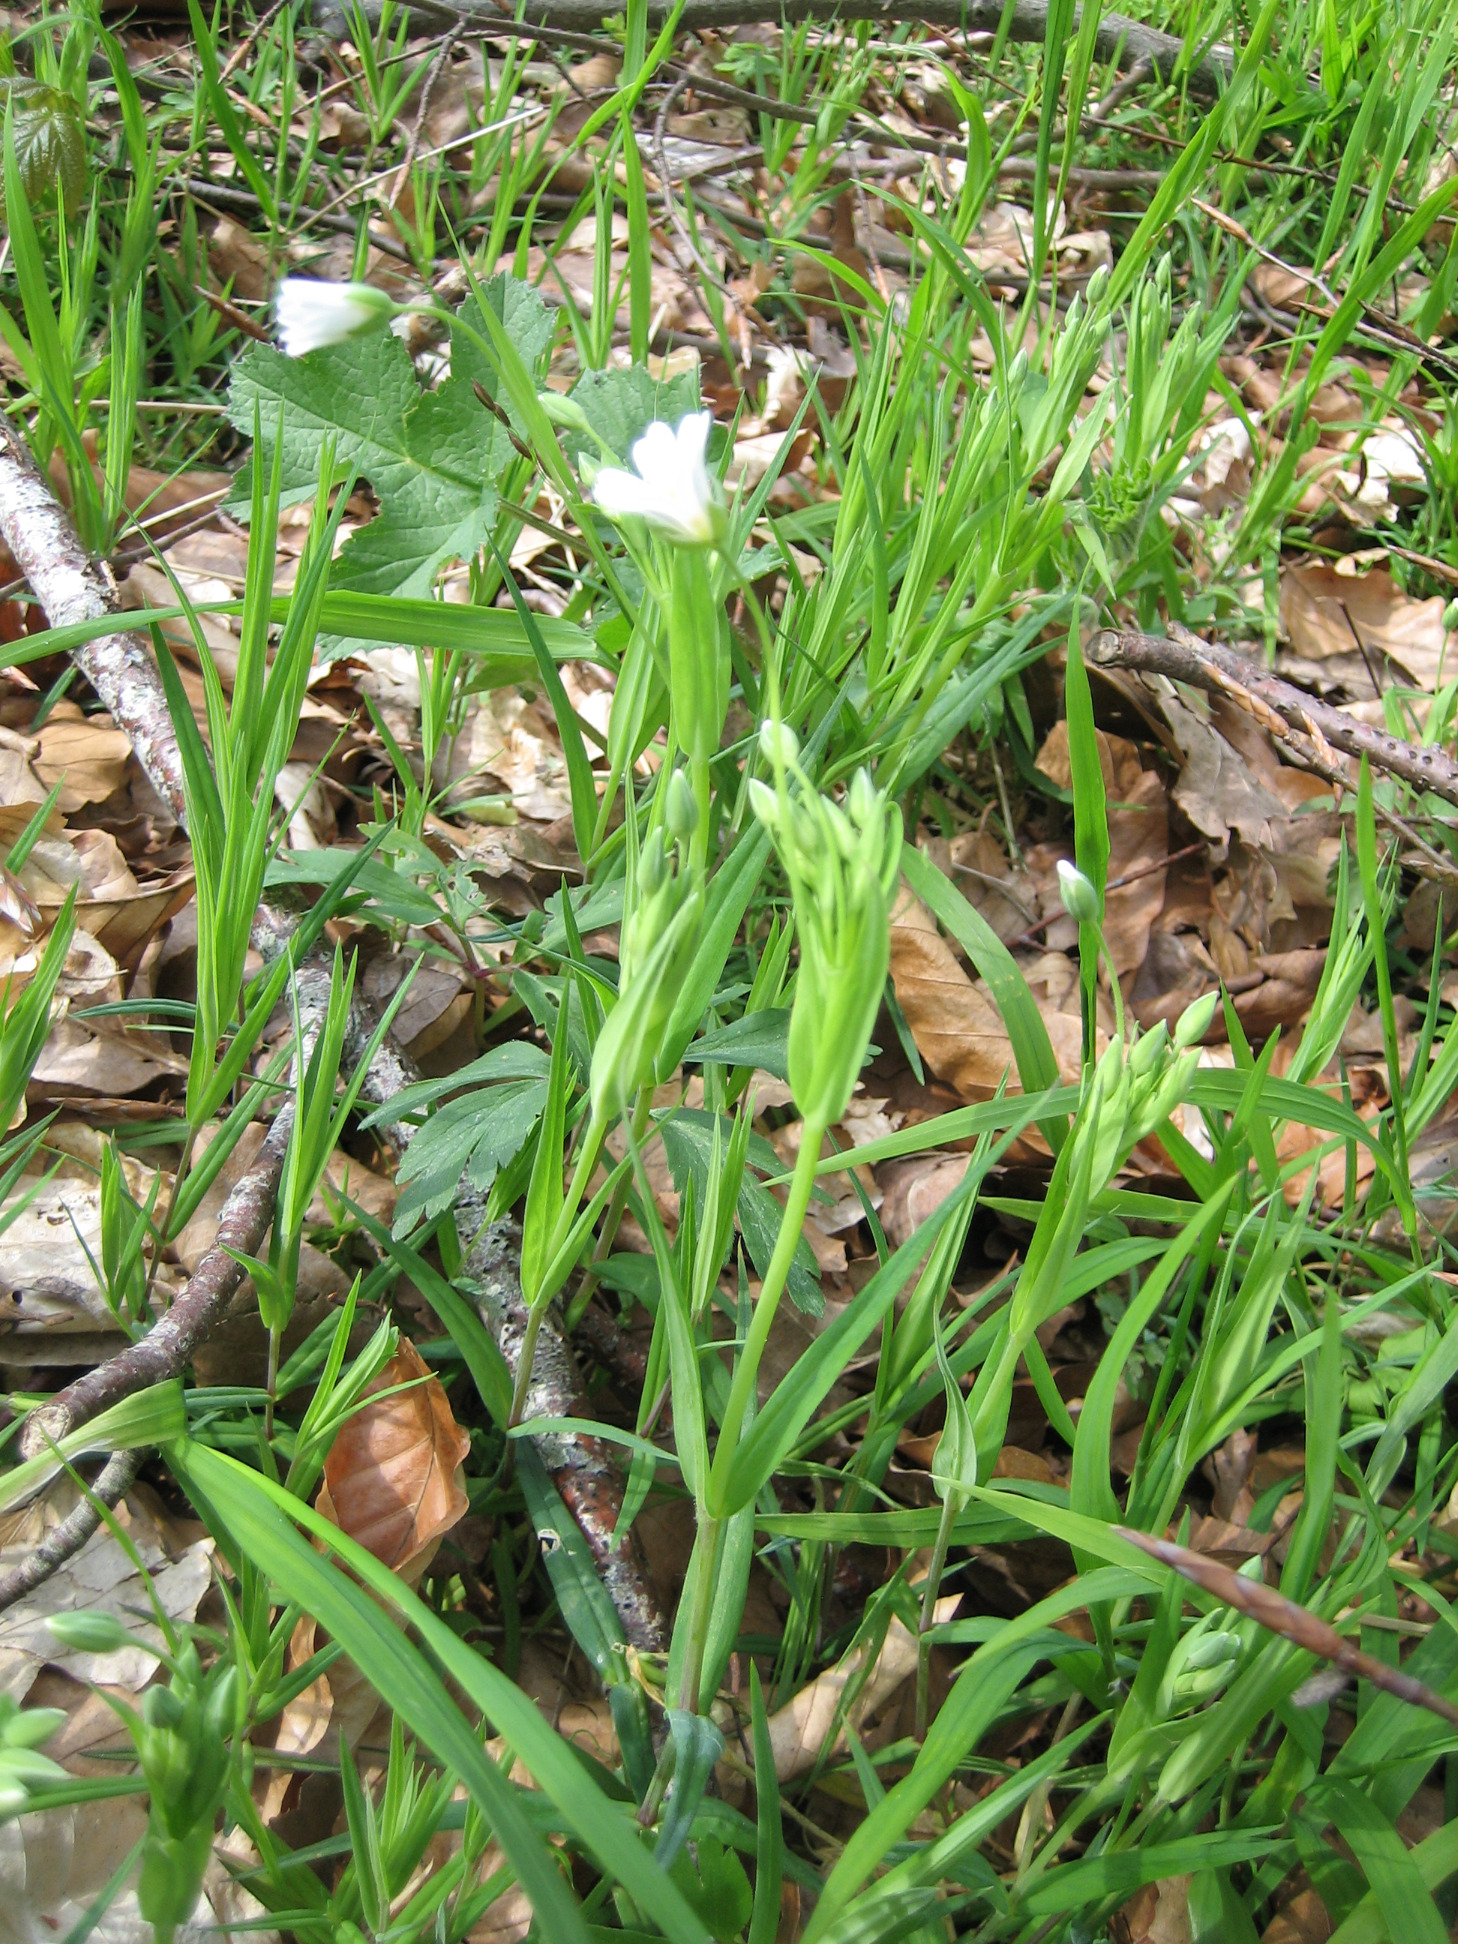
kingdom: Plantae
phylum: Tracheophyta
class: Magnoliopsida
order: Caryophyllales
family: Caryophyllaceae
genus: Rabelera
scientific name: Rabelera holostea
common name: Stor fladstjerne
